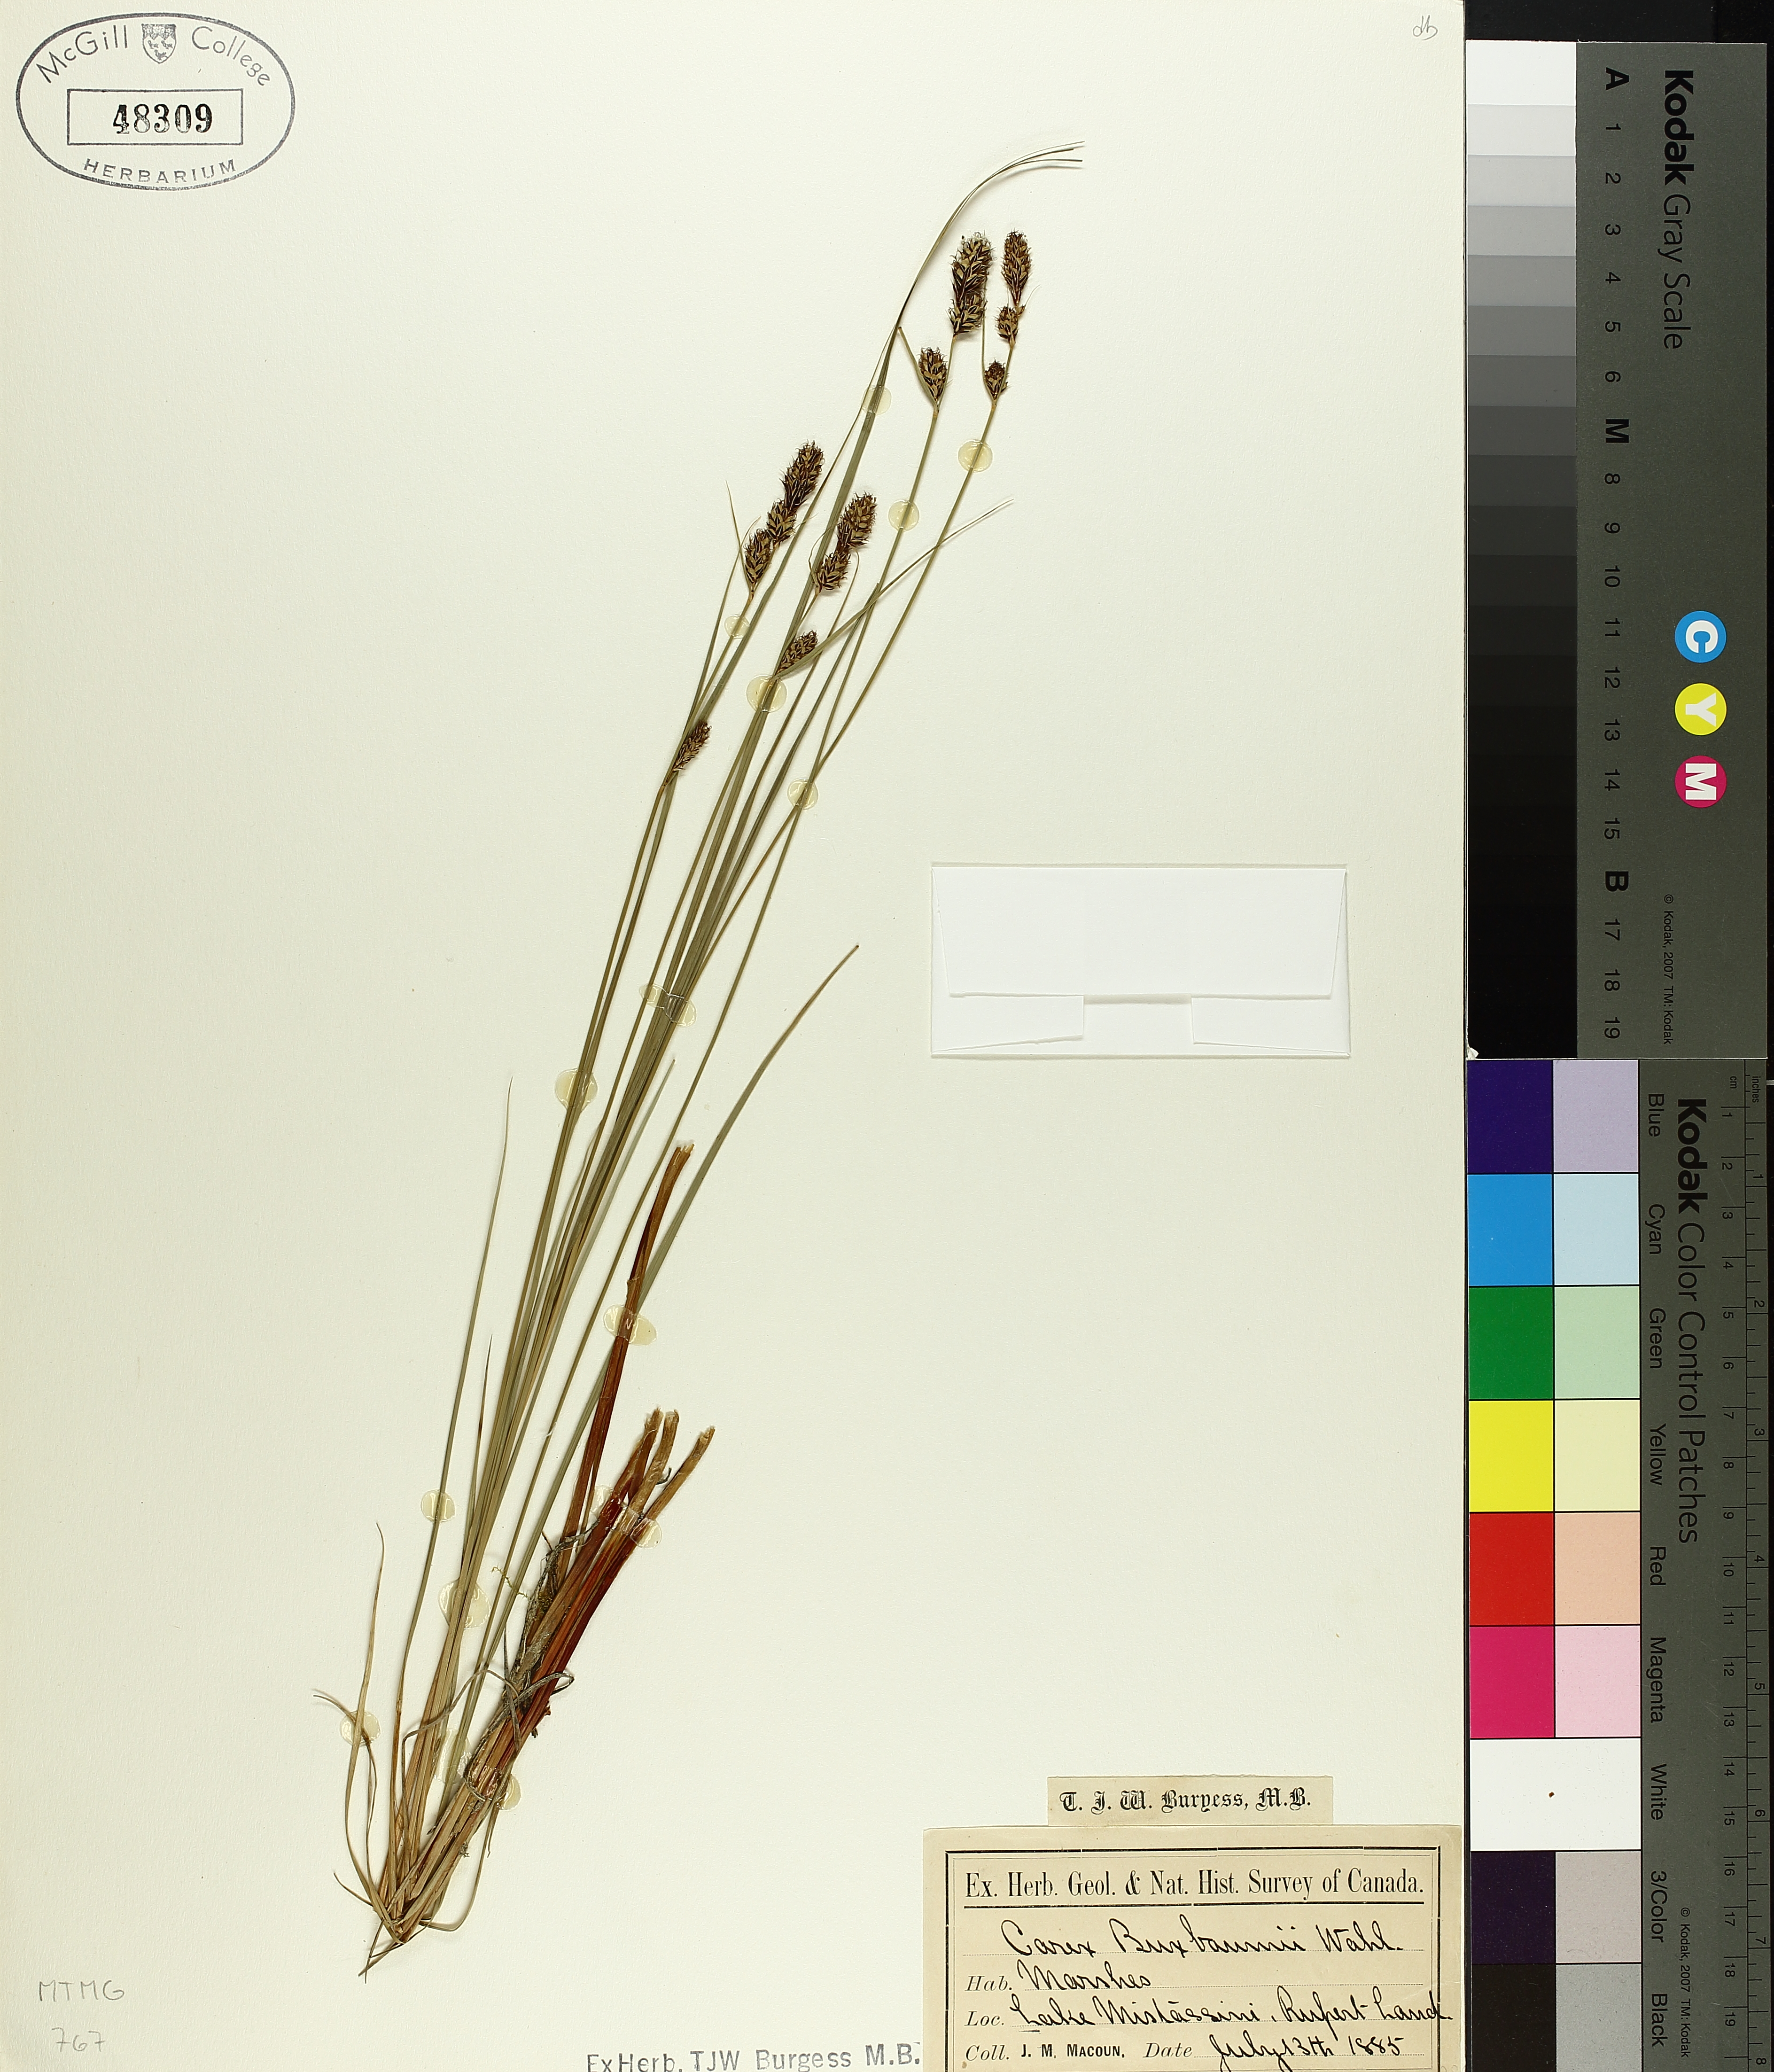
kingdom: Plantae
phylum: Tracheophyta
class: Liliopsida
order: Poales
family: Cyperaceae
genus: Carex
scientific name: Carex buxbaumii
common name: Club sedge
